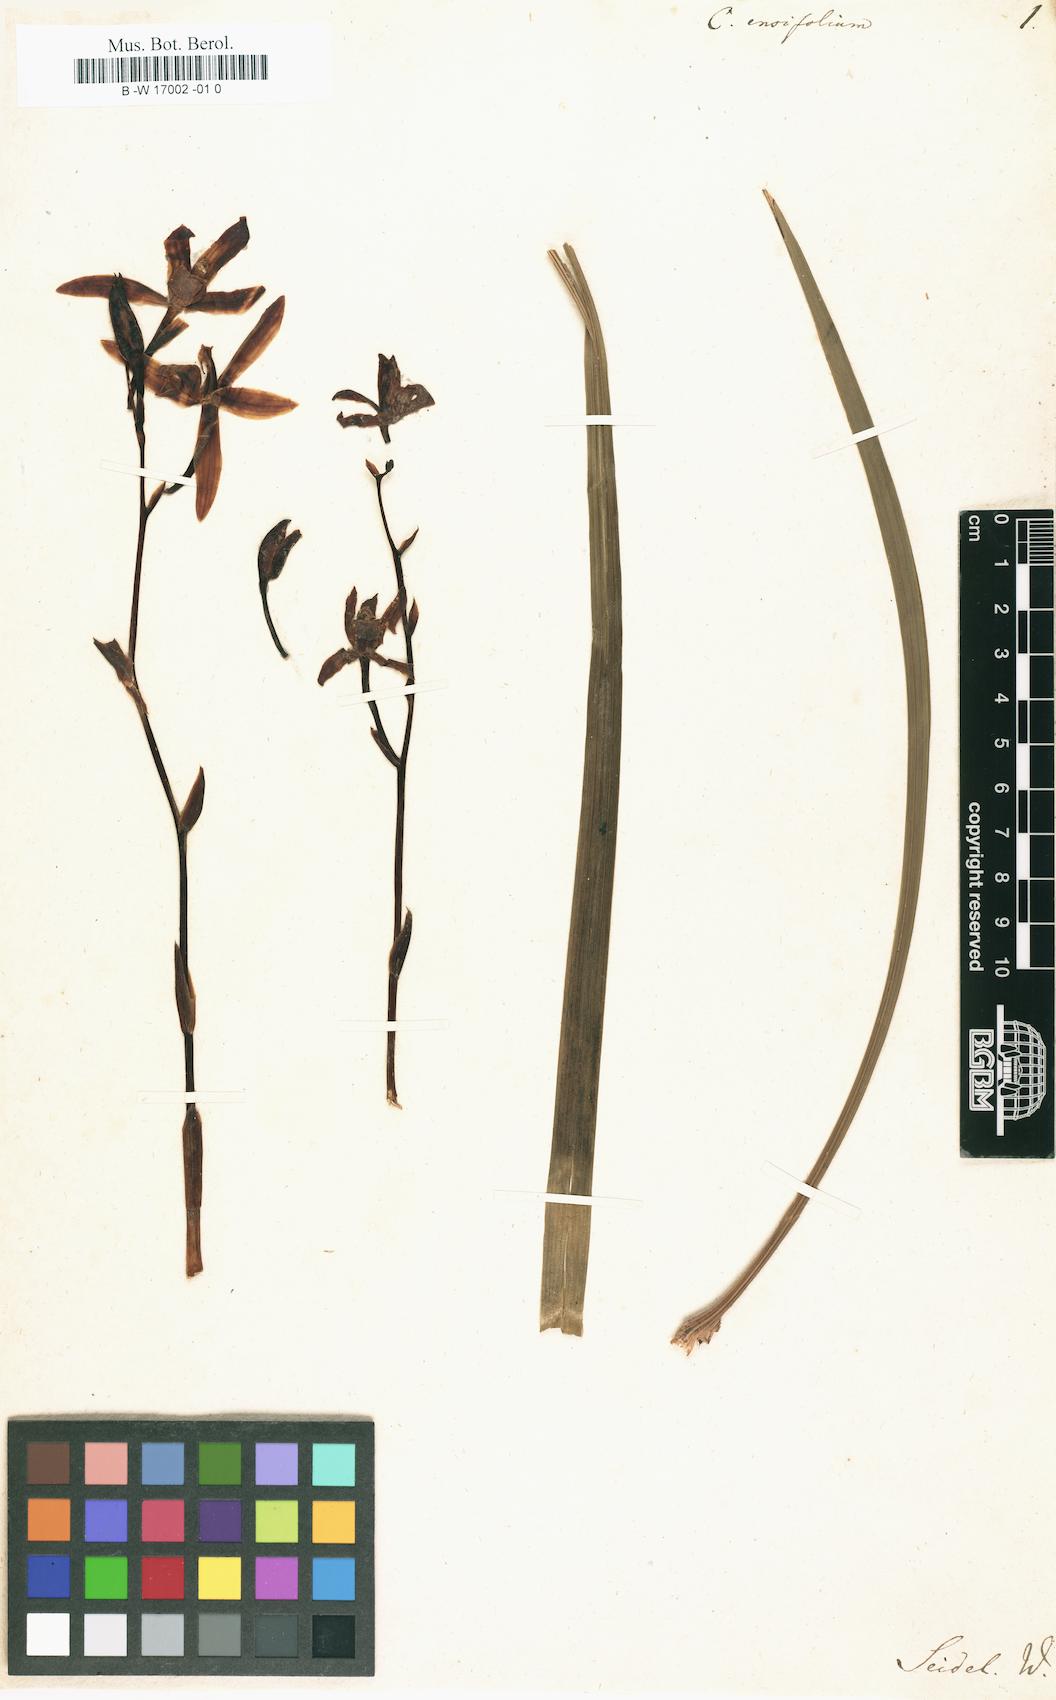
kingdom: Plantae
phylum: Tracheophyta
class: Liliopsida
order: Asparagales
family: Orchidaceae
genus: Cymbidium
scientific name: Cymbidium ensifolium
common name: Fukien-orchid
